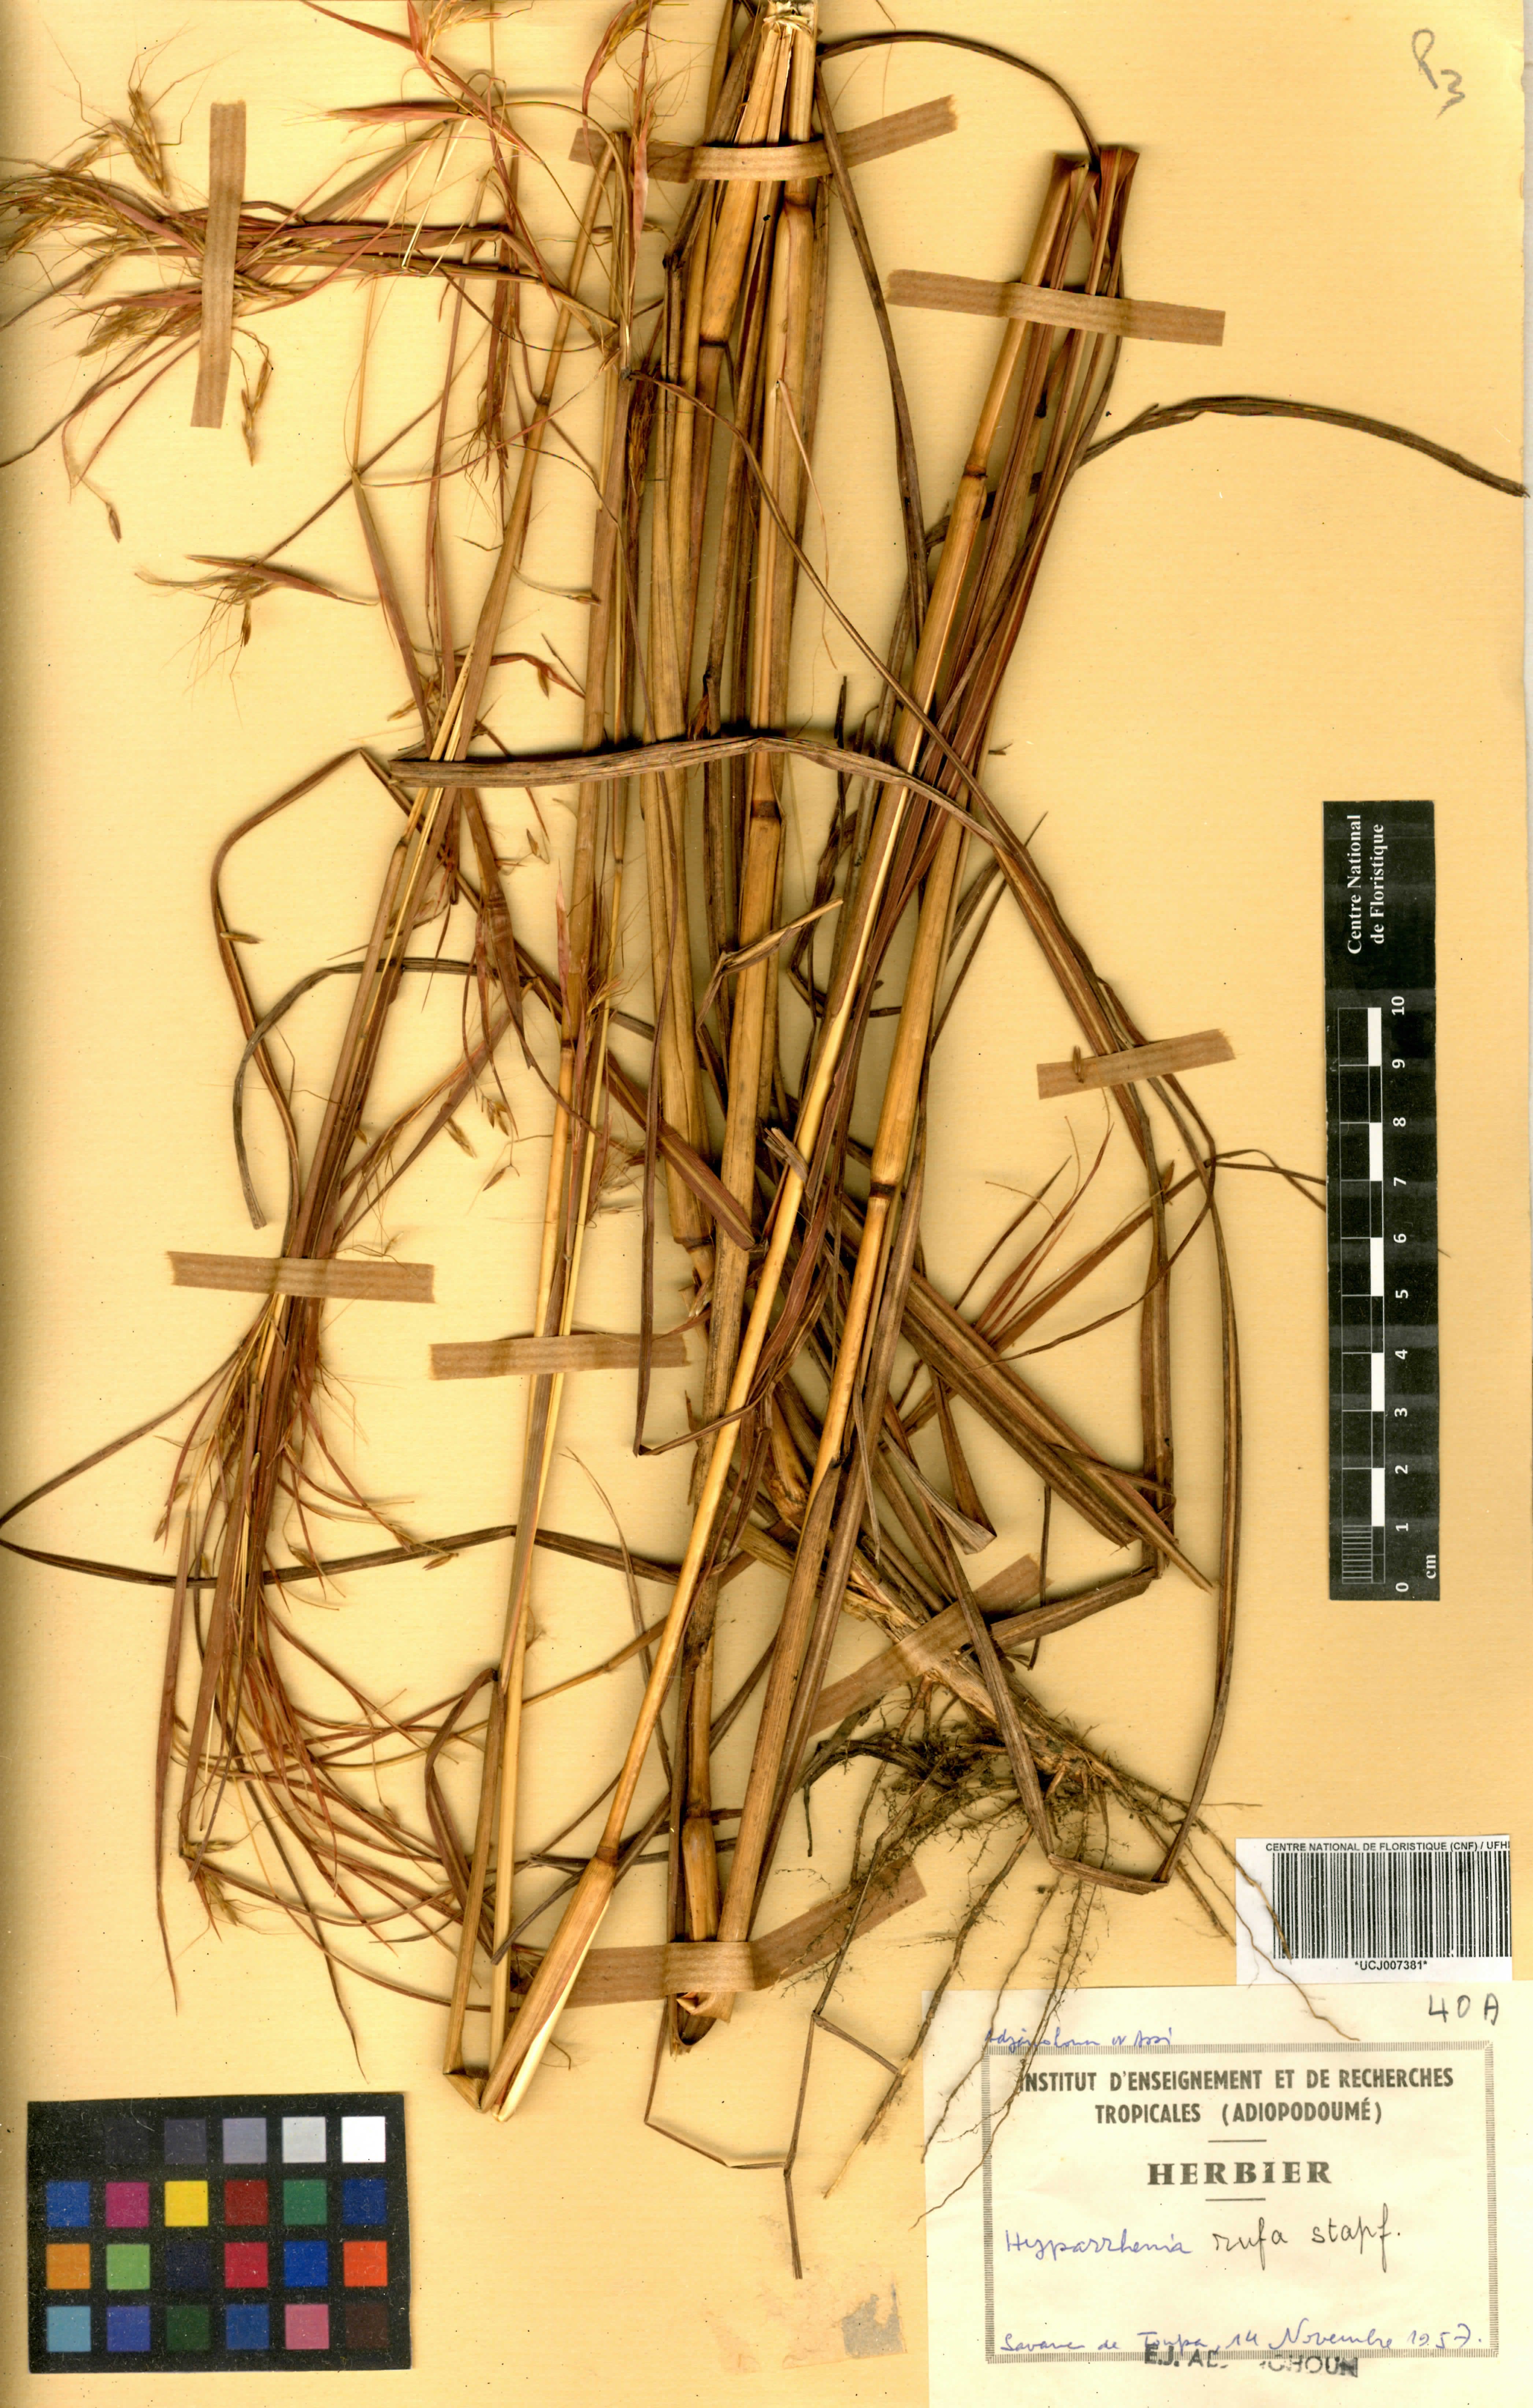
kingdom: Plantae
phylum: Tracheophyta
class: Liliopsida
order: Poales
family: Poaceae
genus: Hyparrhenia
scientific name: Hyparrhenia rufa
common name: Jaraguagrass
